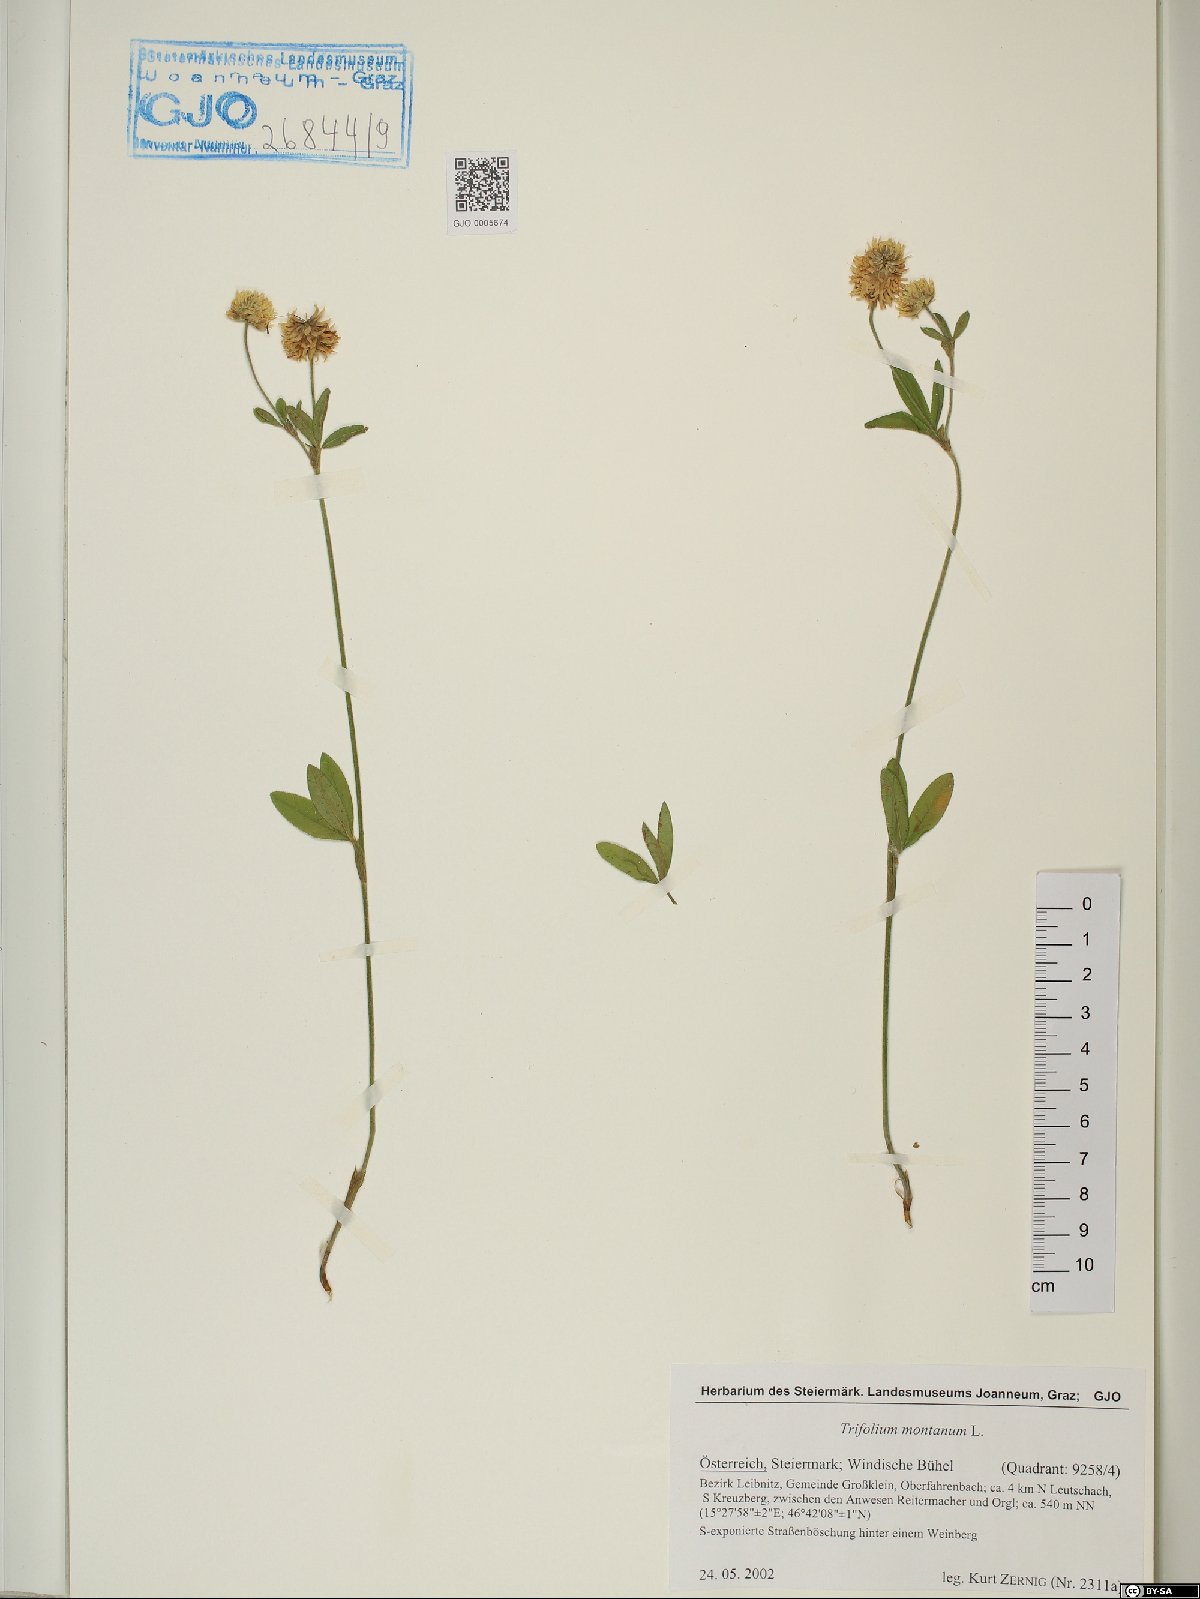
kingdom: Plantae
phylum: Tracheophyta
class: Magnoliopsida
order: Fabales
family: Fabaceae
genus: Trifolium
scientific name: Trifolium montanum
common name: Mountain clover
